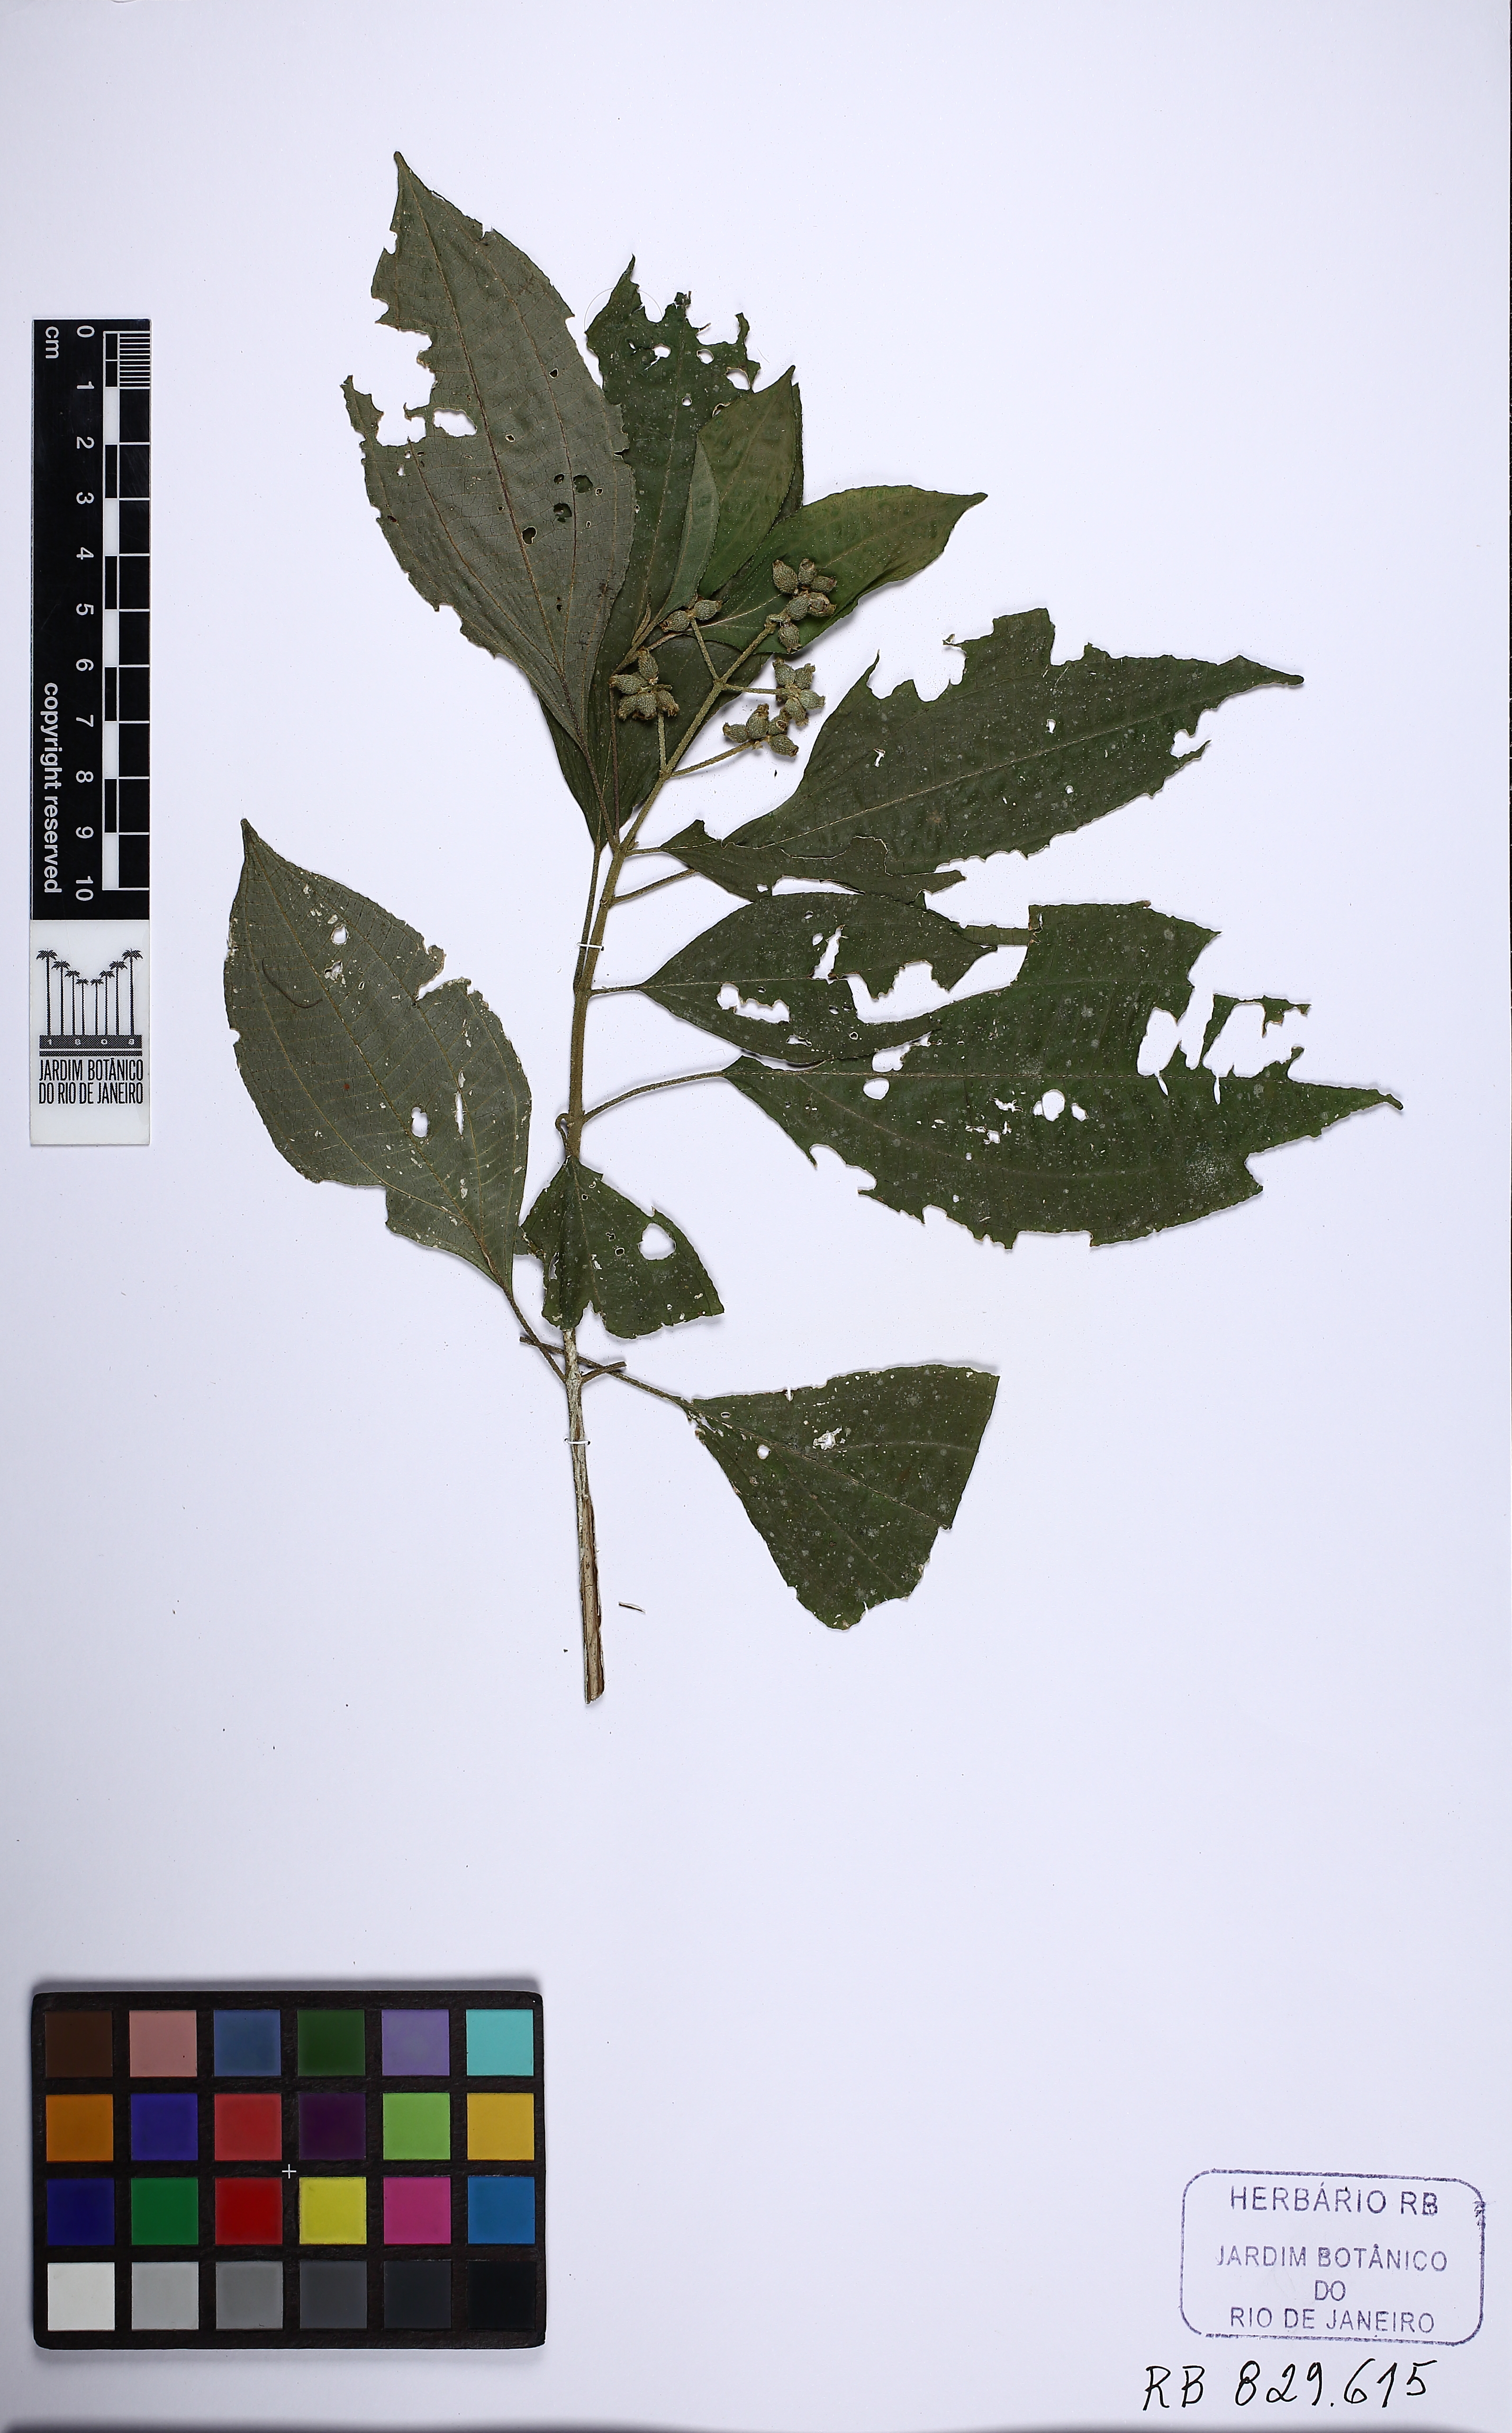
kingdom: Plantae
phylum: Tracheophyta
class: Magnoliopsida
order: Myrtales
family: Melastomataceae
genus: Miconia
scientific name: Miconia dubia
